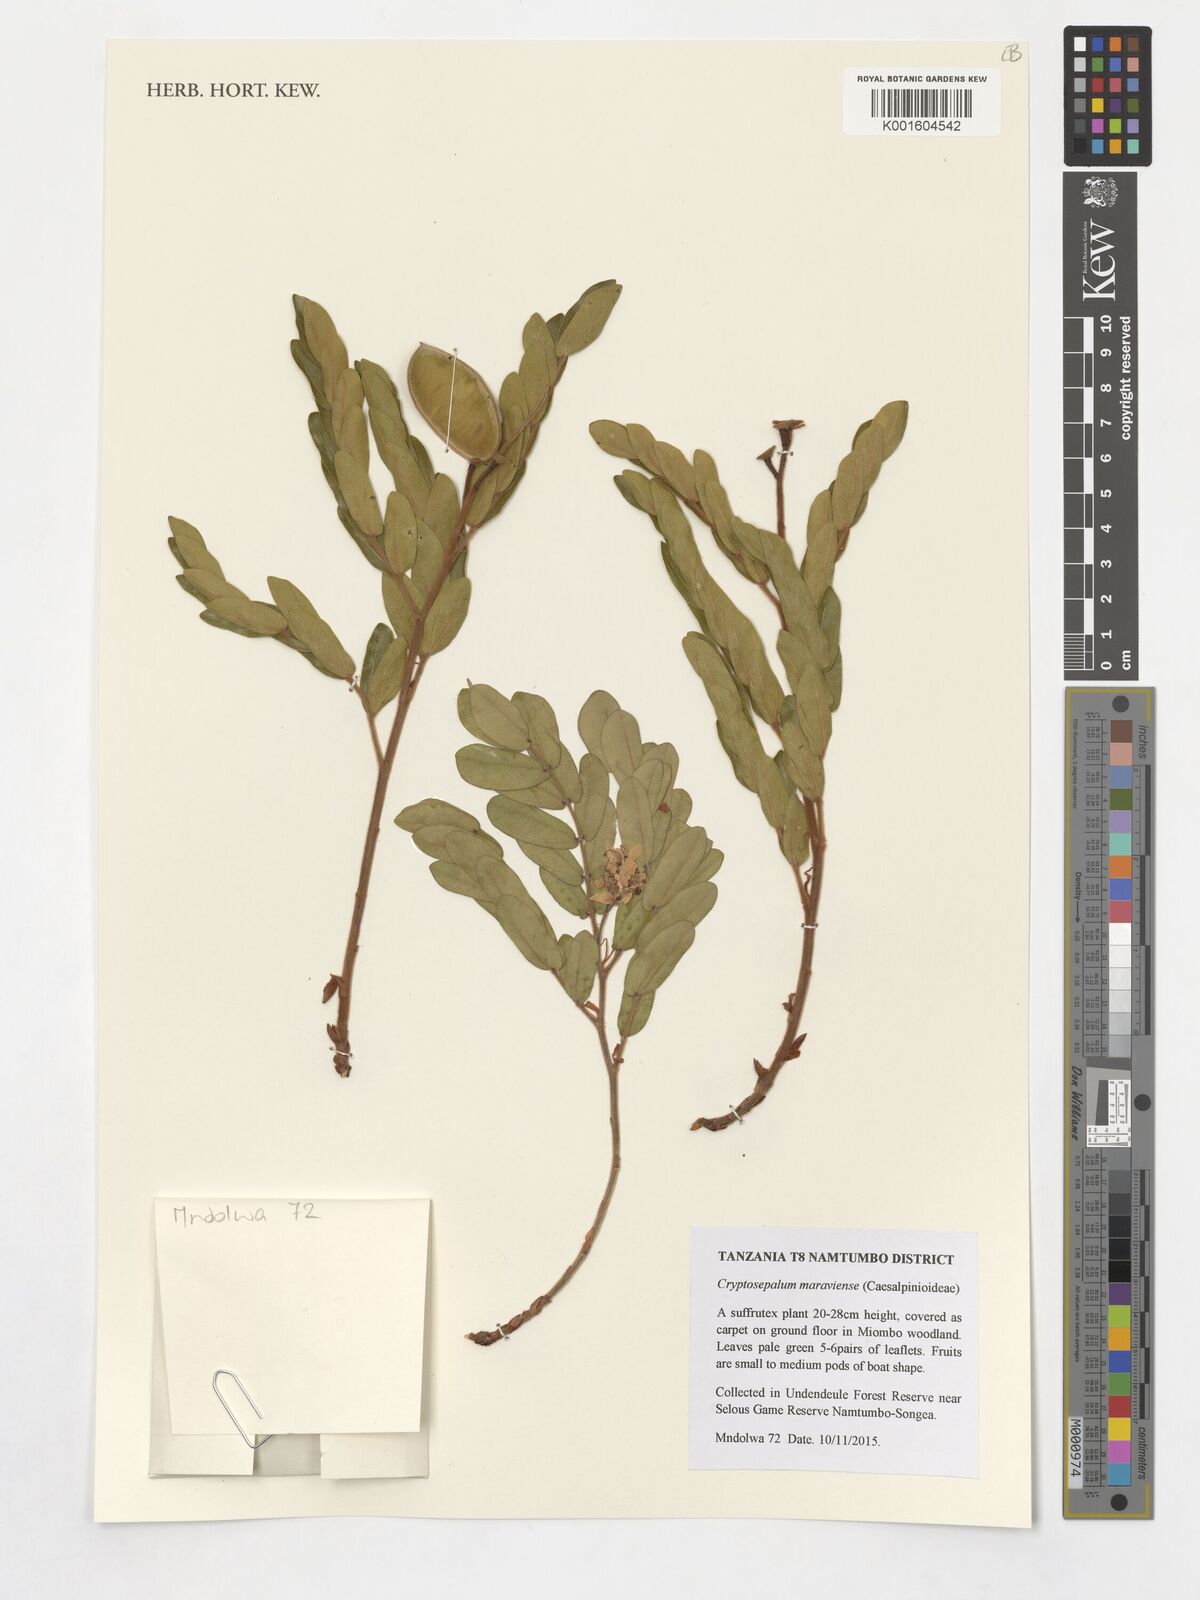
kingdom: Plantae
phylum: Tracheophyta
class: Magnoliopsida
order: Fabales
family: Fabaceae
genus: Cryptosepalum
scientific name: Cryptosepalum maraviense
